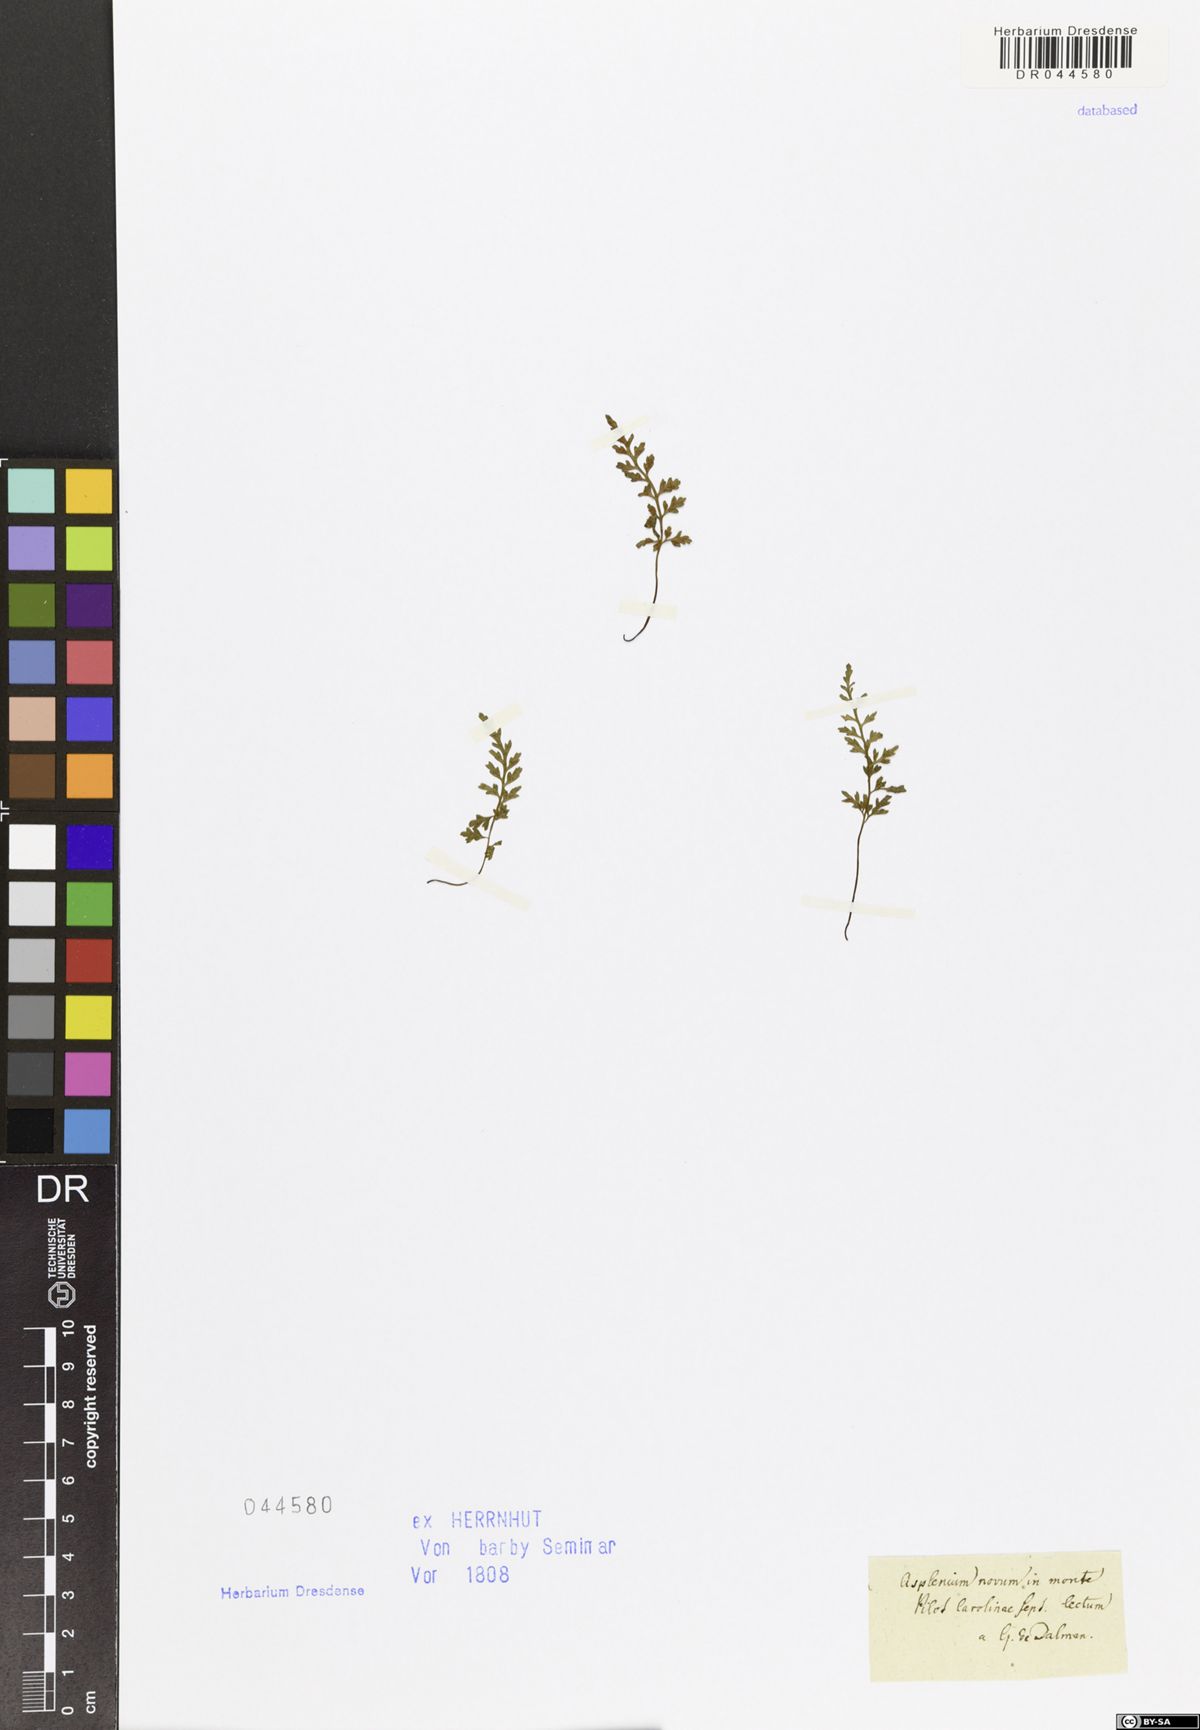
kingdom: Plantae
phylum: Tracheophyta
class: Polypodiopsida
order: Polypodiales
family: Aspleniaceae
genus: Asplenium
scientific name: Asplenium montanum
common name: Mountain spleenwort
